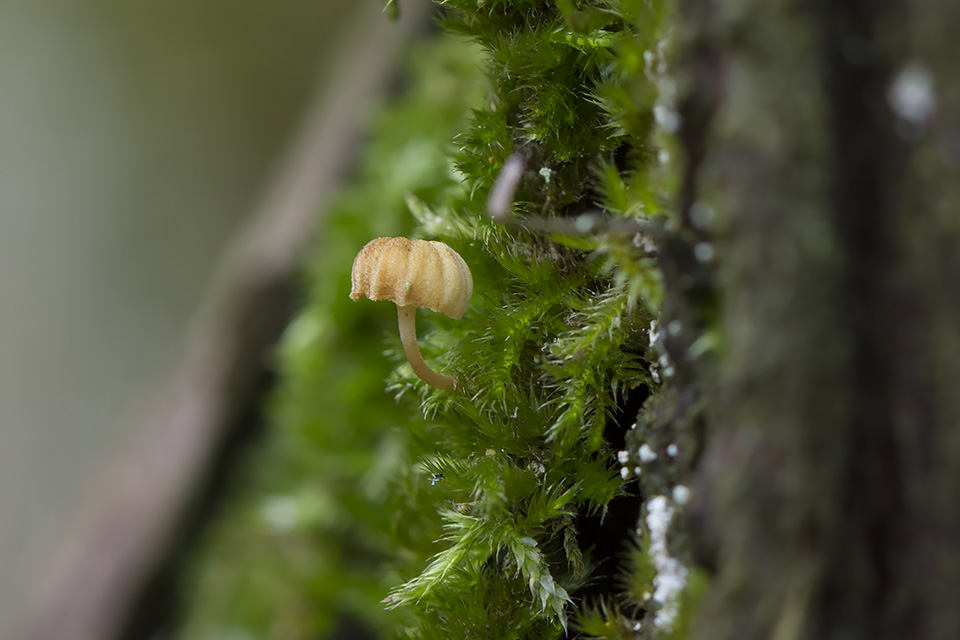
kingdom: Fungi
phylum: Basidiomycota
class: Agaricomycetes
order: Agaricales
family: Mycenaceae
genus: Mycena
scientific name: Mycena juniperina
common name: ene-Huesvamp
